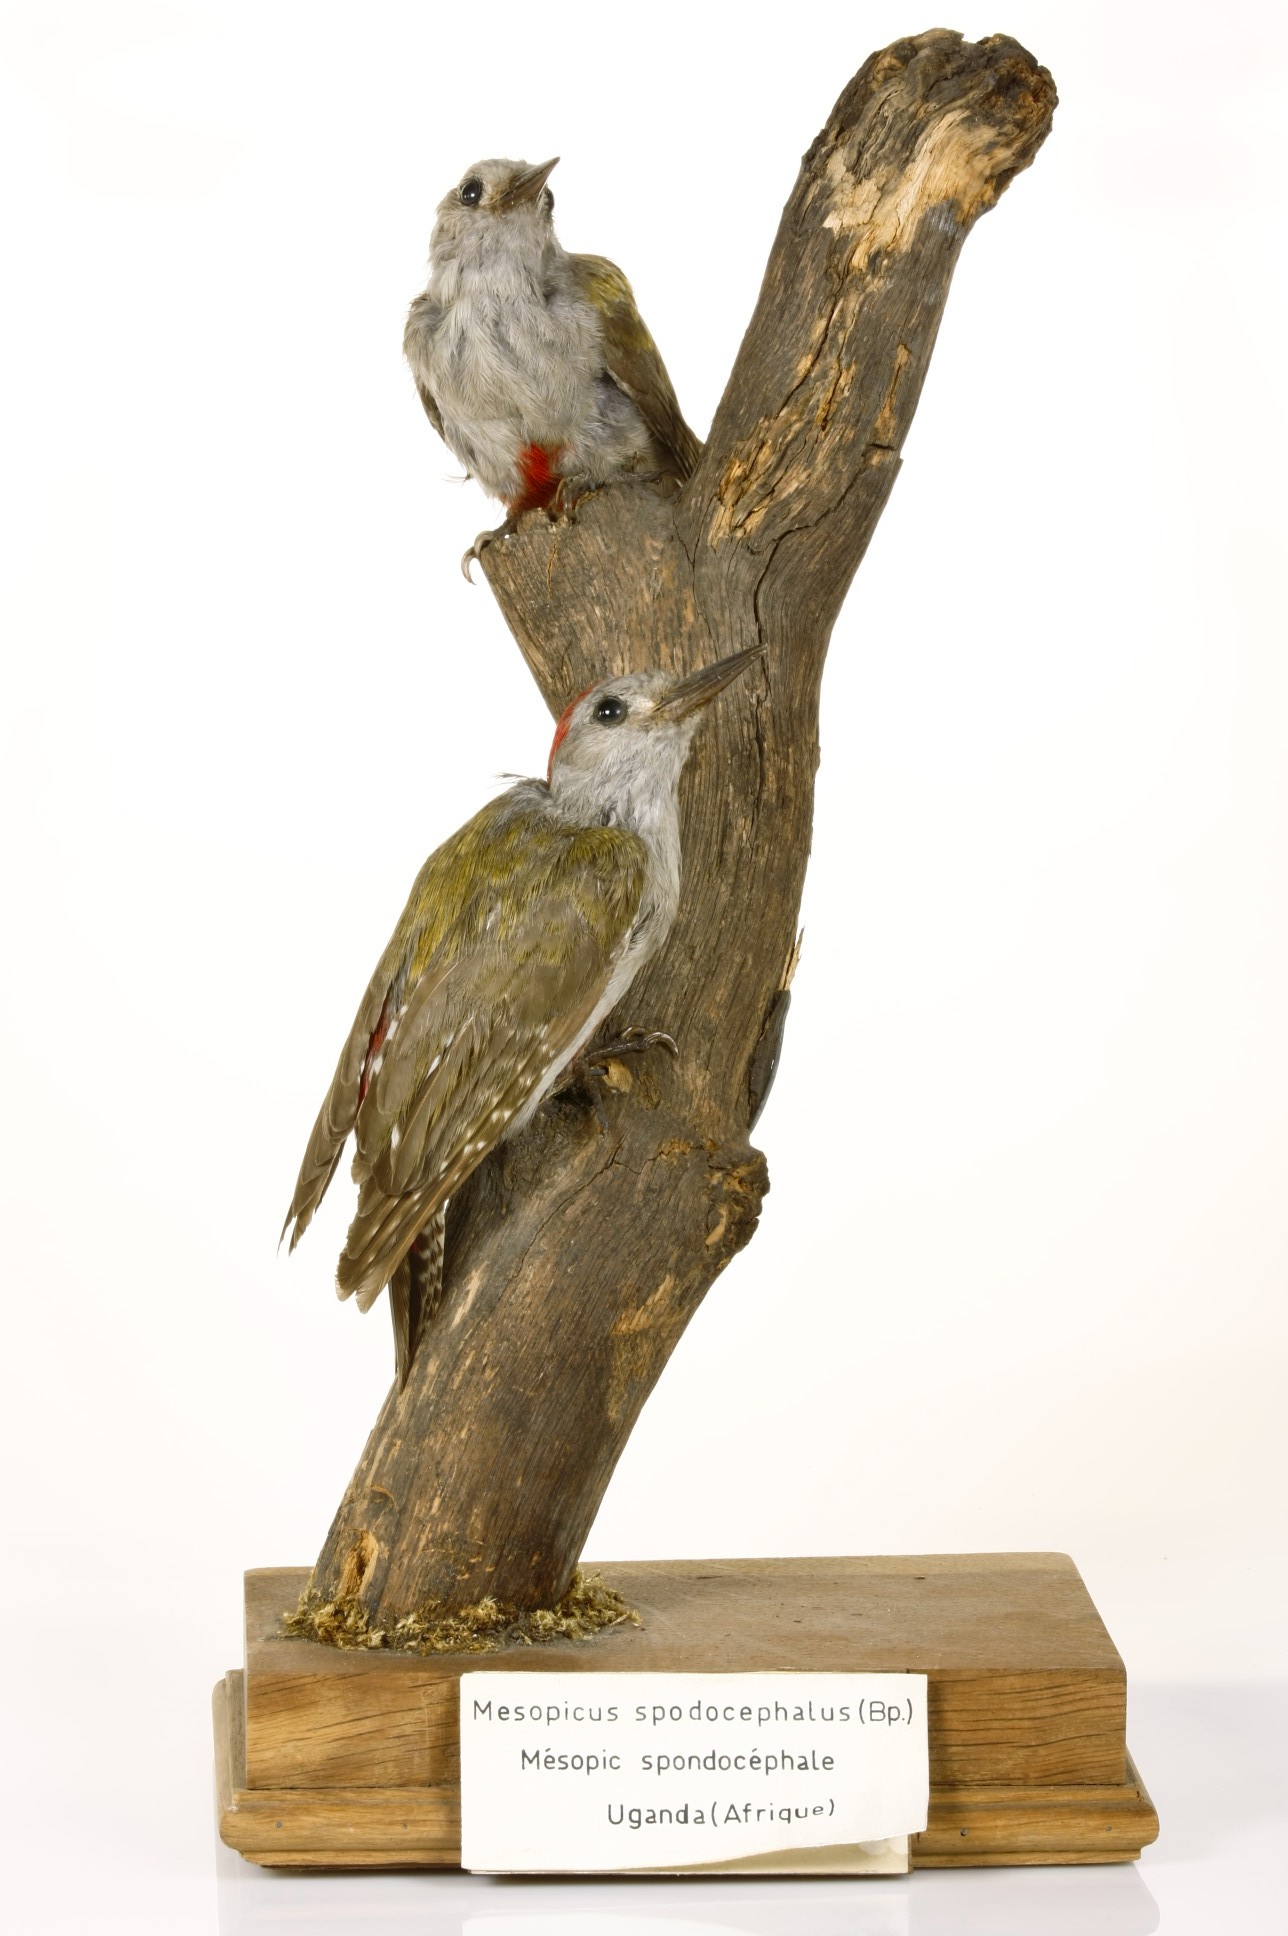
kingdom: Animalia
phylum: Chordata
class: Aves
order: Piciformes
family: Picidae
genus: Dendropicos
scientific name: Dendropicos spodocephalus
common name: Eastern grey woodpecker
